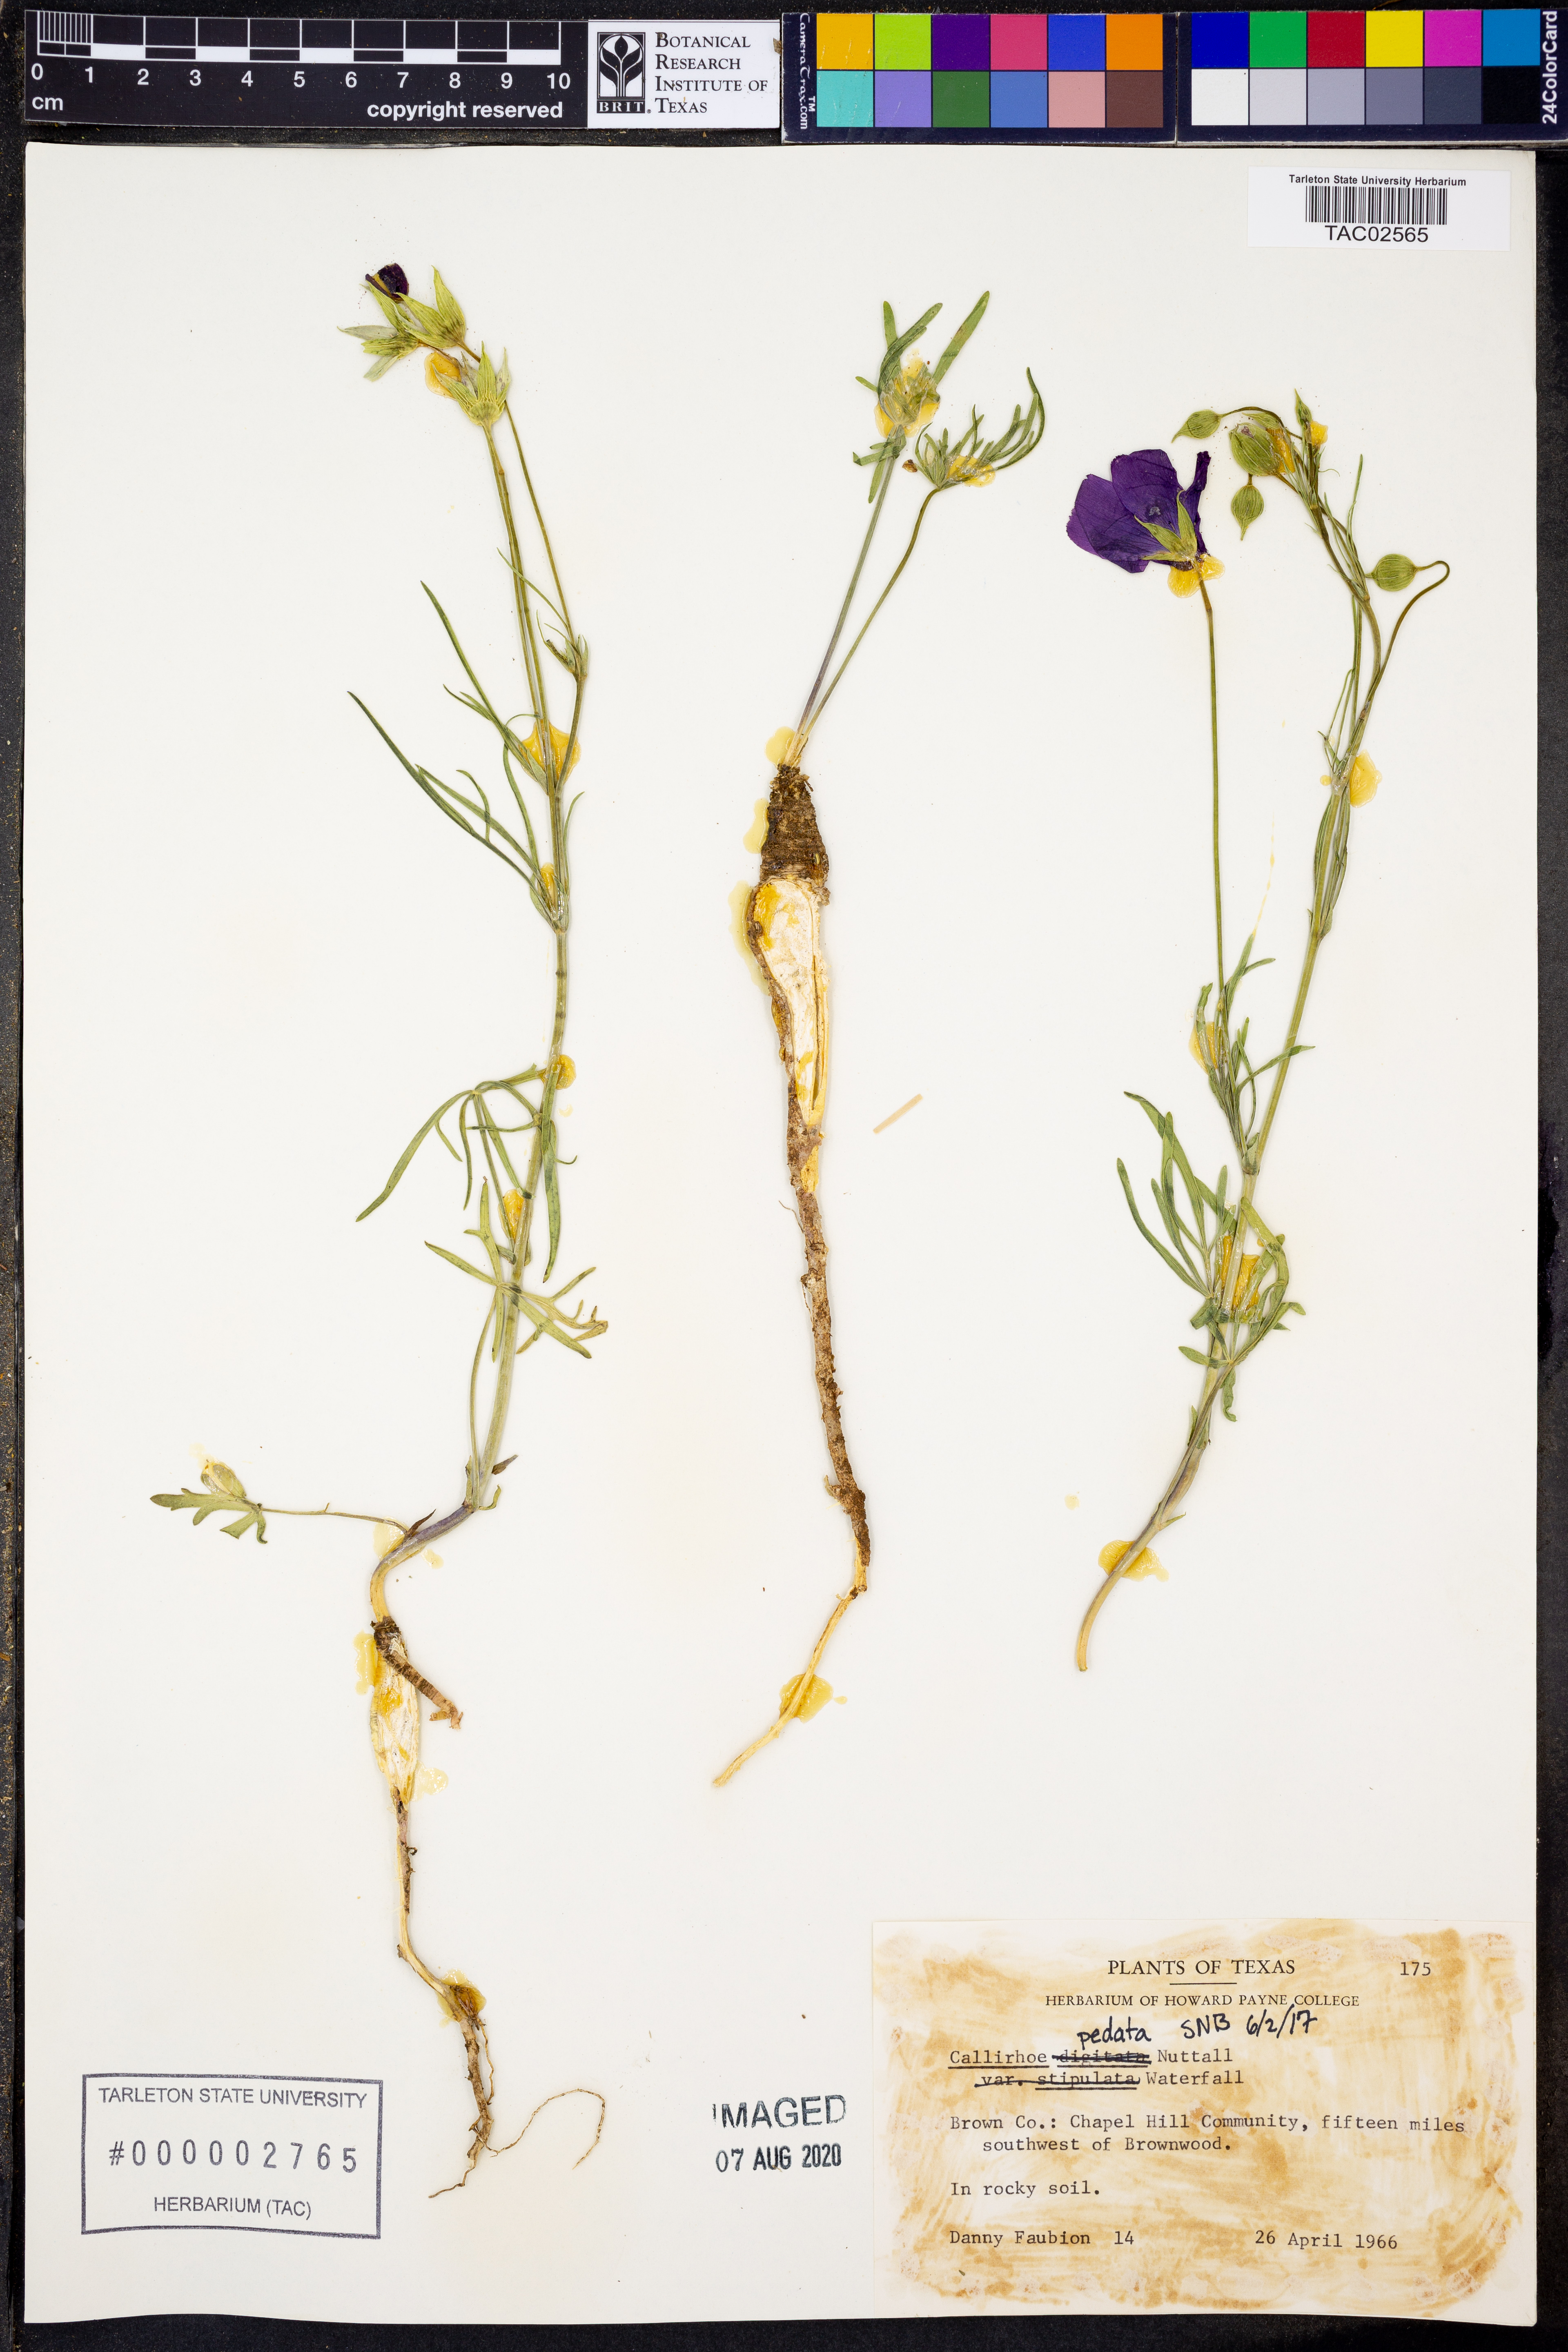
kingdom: Plantae
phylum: Tracheophyta
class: Magnoliopsida
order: Malvales
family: Malvaceae
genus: Callirhoe
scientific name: Callirhoe pedata
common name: Finger poppy-mallow
